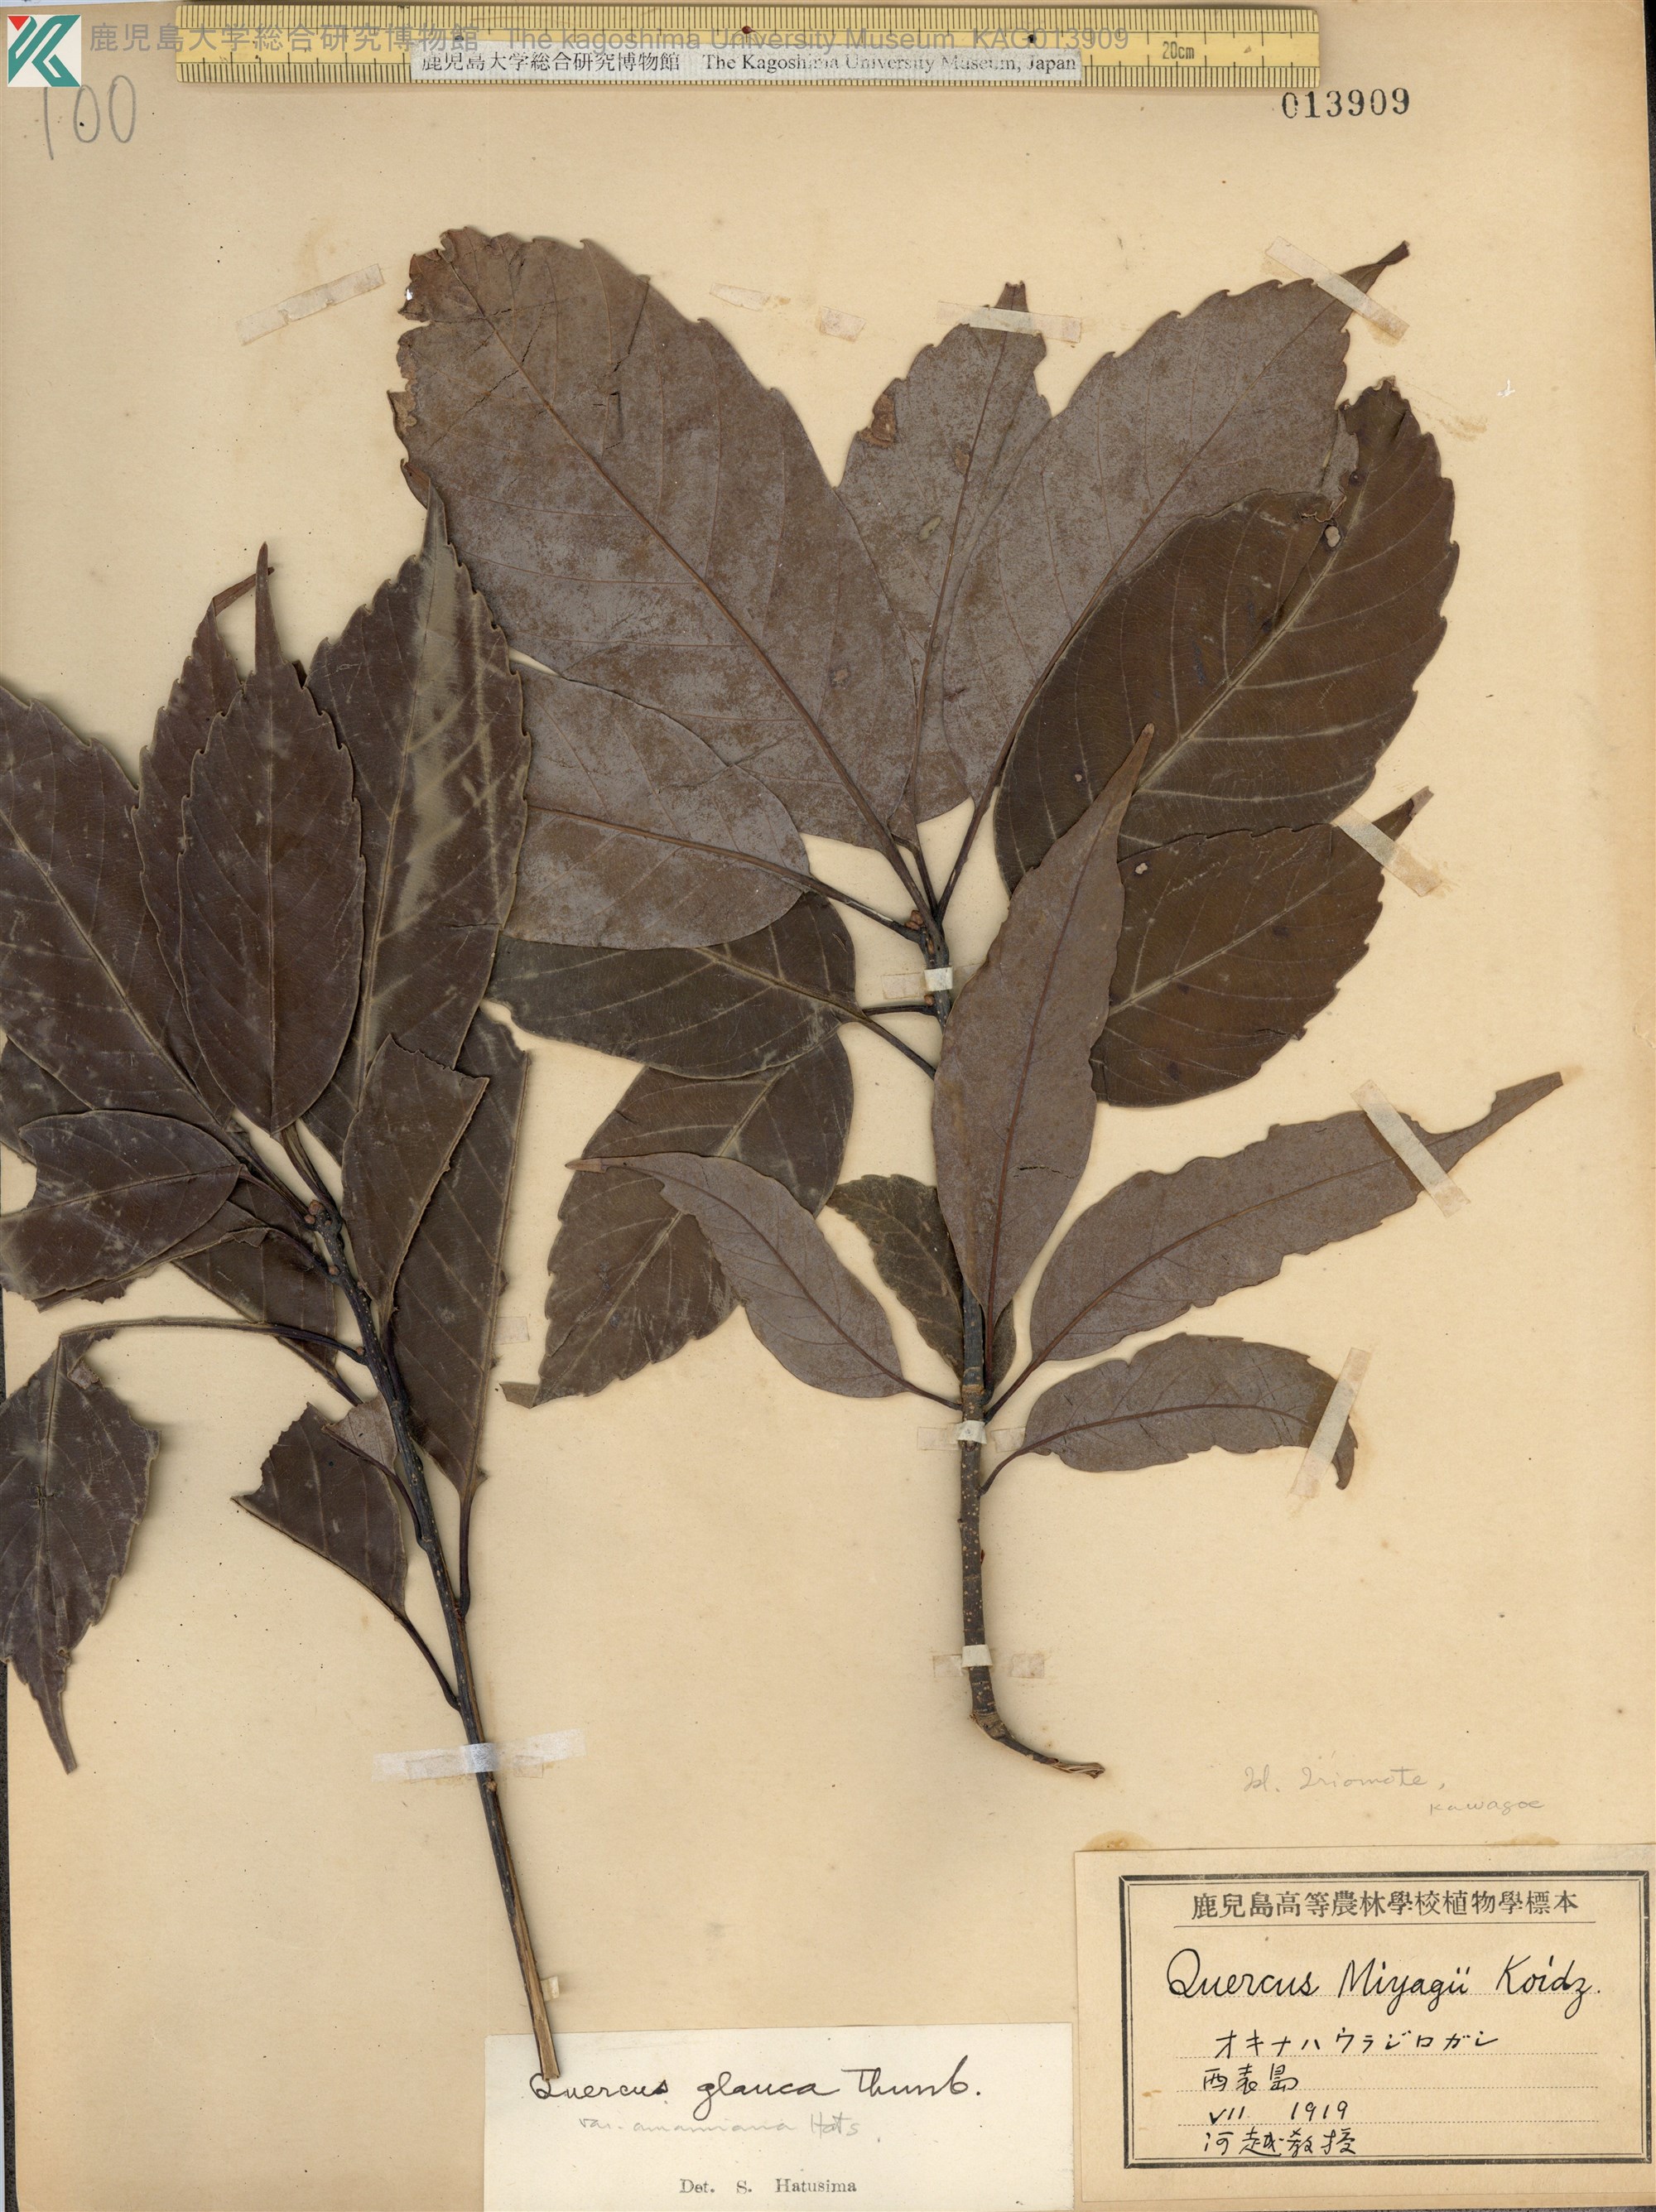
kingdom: Plantae
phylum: Tracheophyta
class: Magnoliopsida
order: Fagales
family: Fagaceae
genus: Quercus
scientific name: Quercus glauca
